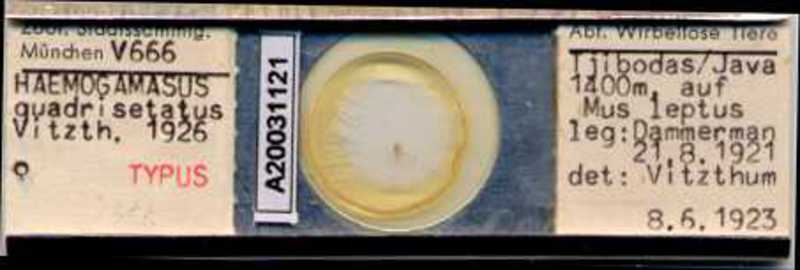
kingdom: Animalia
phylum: Arthropoda
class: Arachnida
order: Mesostigmata
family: Parasitidae
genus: Haemogamasus
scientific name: Haemogamasus quadrisetatus
